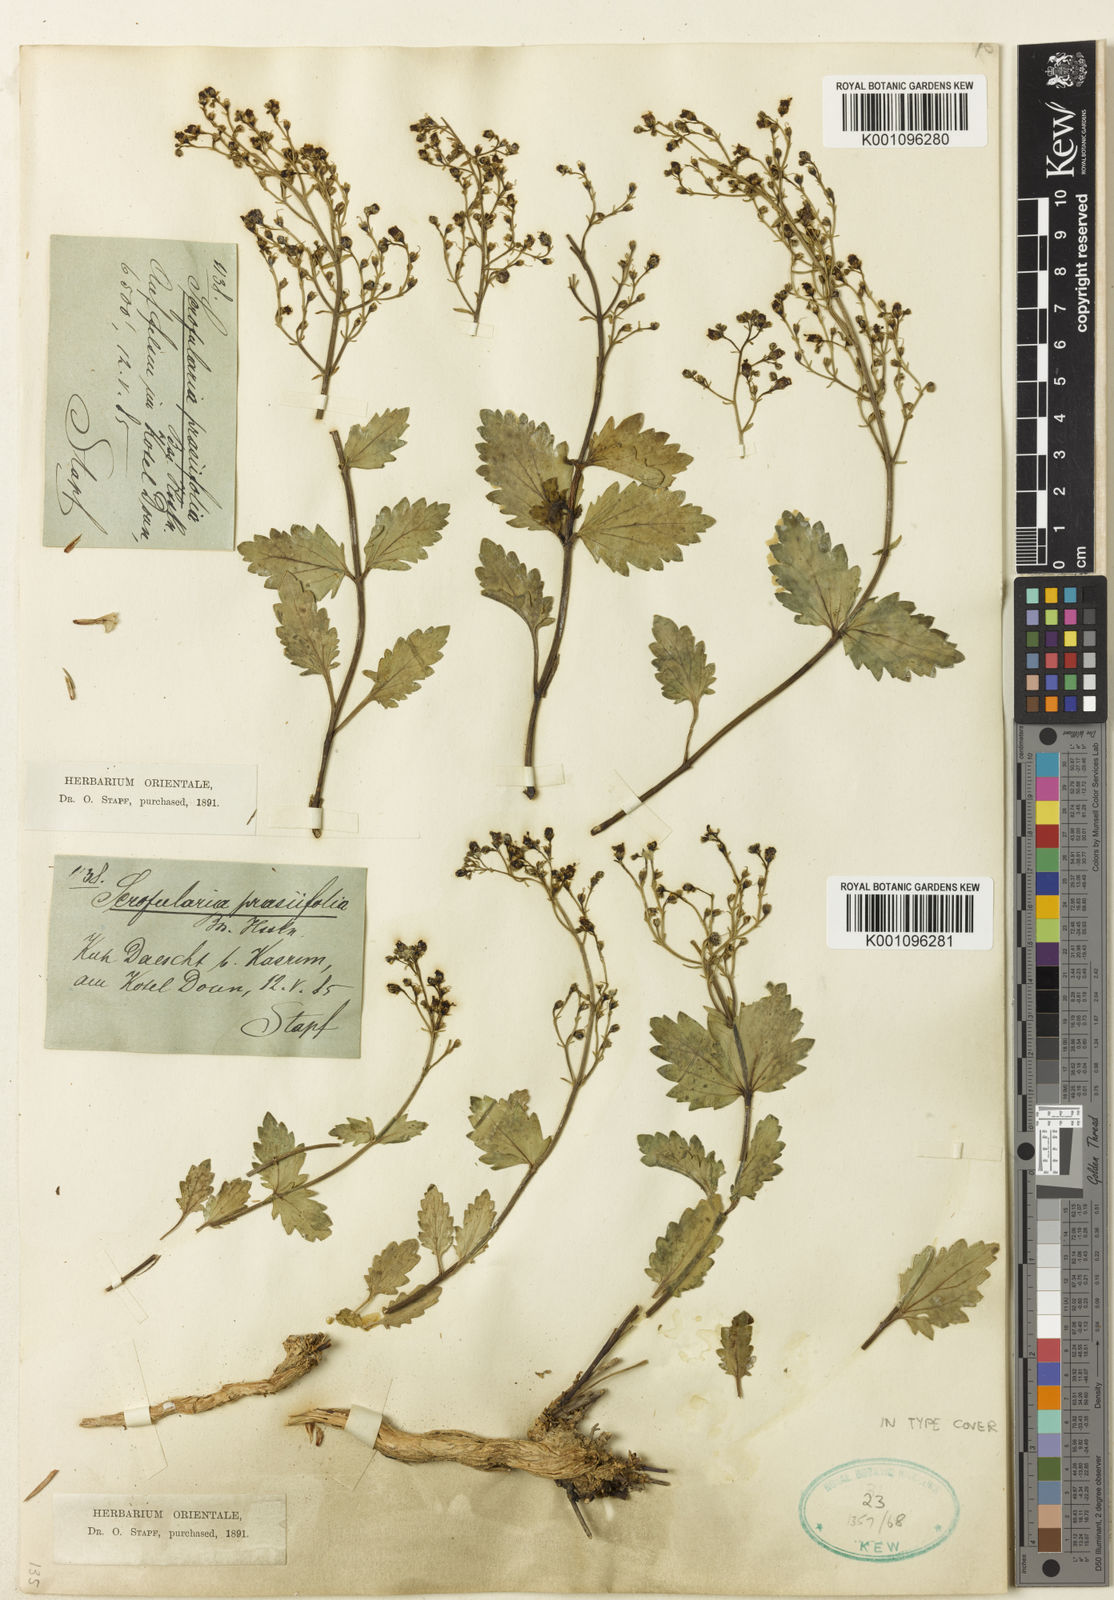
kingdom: Plantae
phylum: Tracheophyta
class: Magnoliopsida
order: Lamiales
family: Scrophulariaceae
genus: Scrophularia
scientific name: Scrophularia prasiifolia
